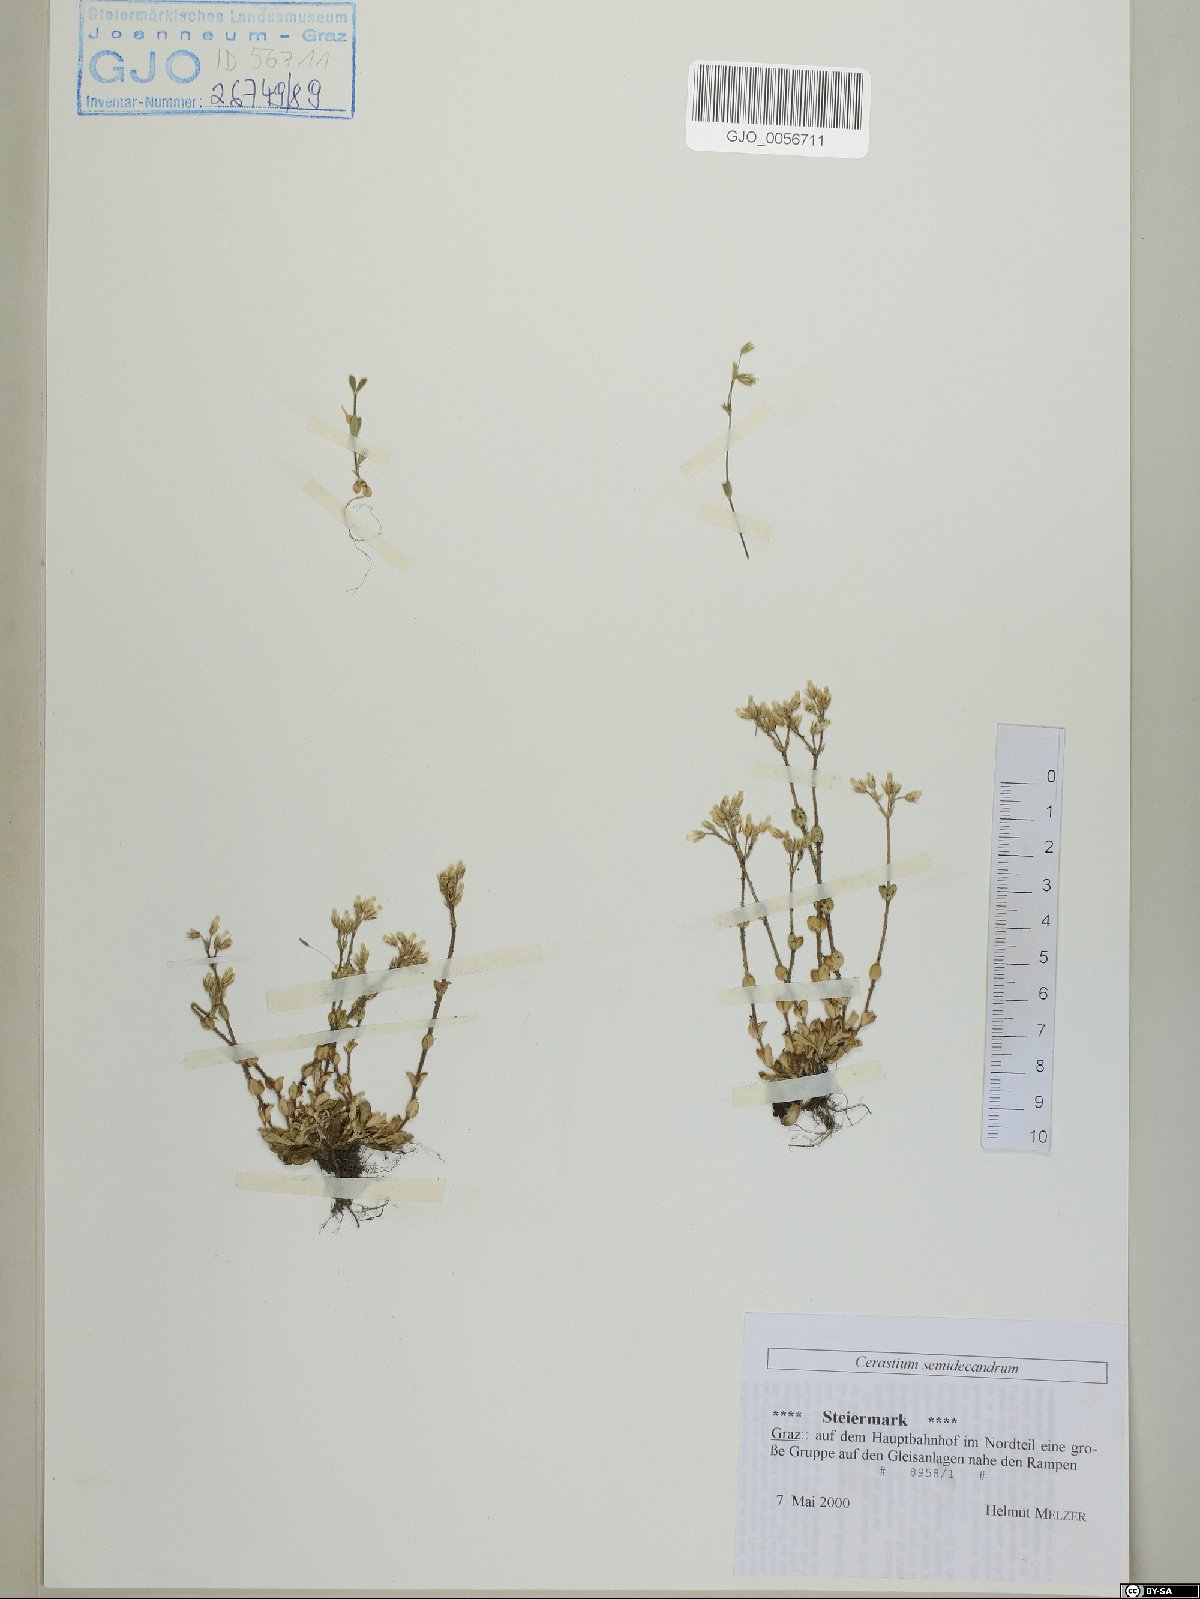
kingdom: Plantae
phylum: Tracheophyta
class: Magnoliopsida
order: Caryophyllales
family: Caryophyllaceae
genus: Cerastium
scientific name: Cerastium semidecandrum
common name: Little mouse-ear
